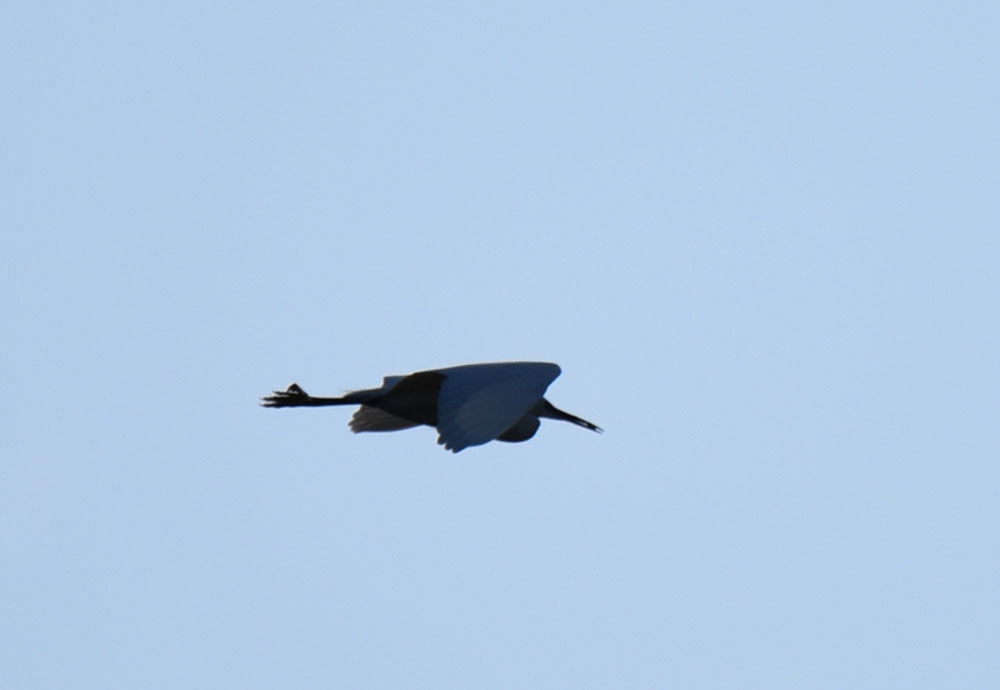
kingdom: Animalia
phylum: Chordata
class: Aves
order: Pelecaniformes
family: Ardeidae
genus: Egretta
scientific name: Egretta garzetta
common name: Little egret
